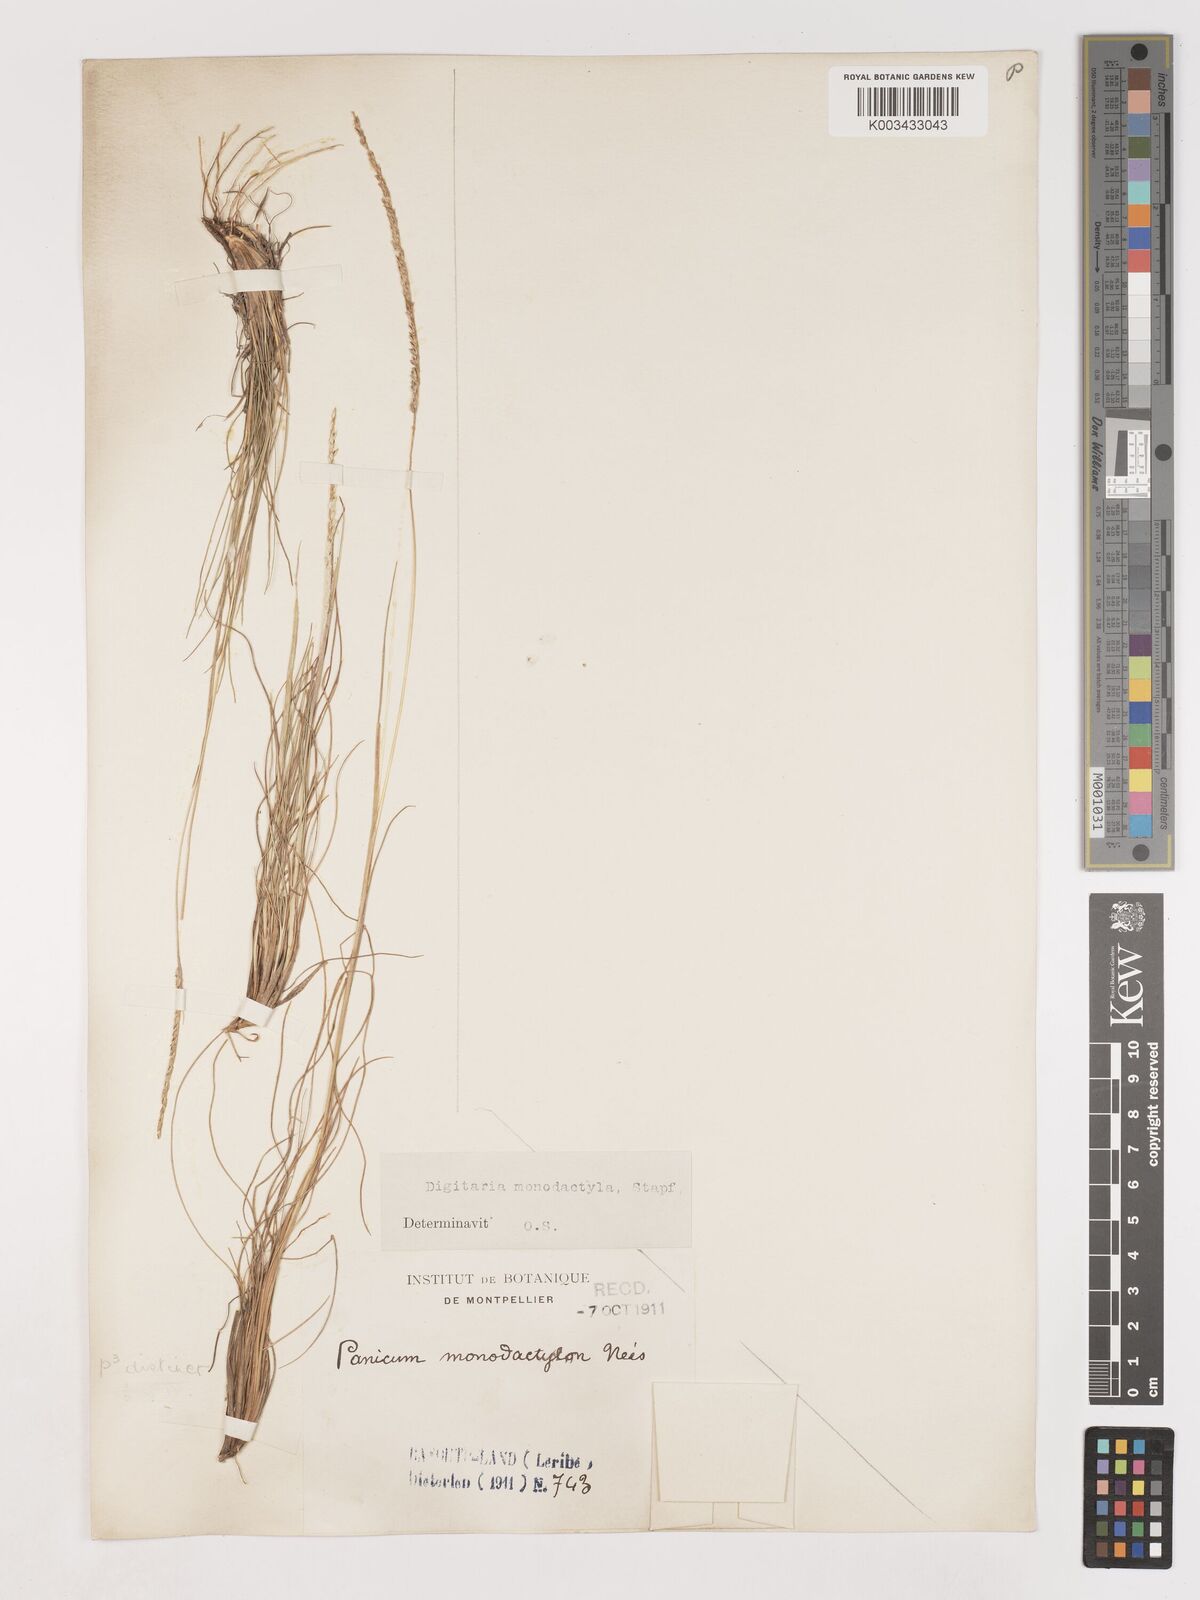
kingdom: Plantae
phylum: Tracheophyta
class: Liliopsida
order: Poales
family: Poaceae
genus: Digitaria
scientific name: Digitaria monodactyla
